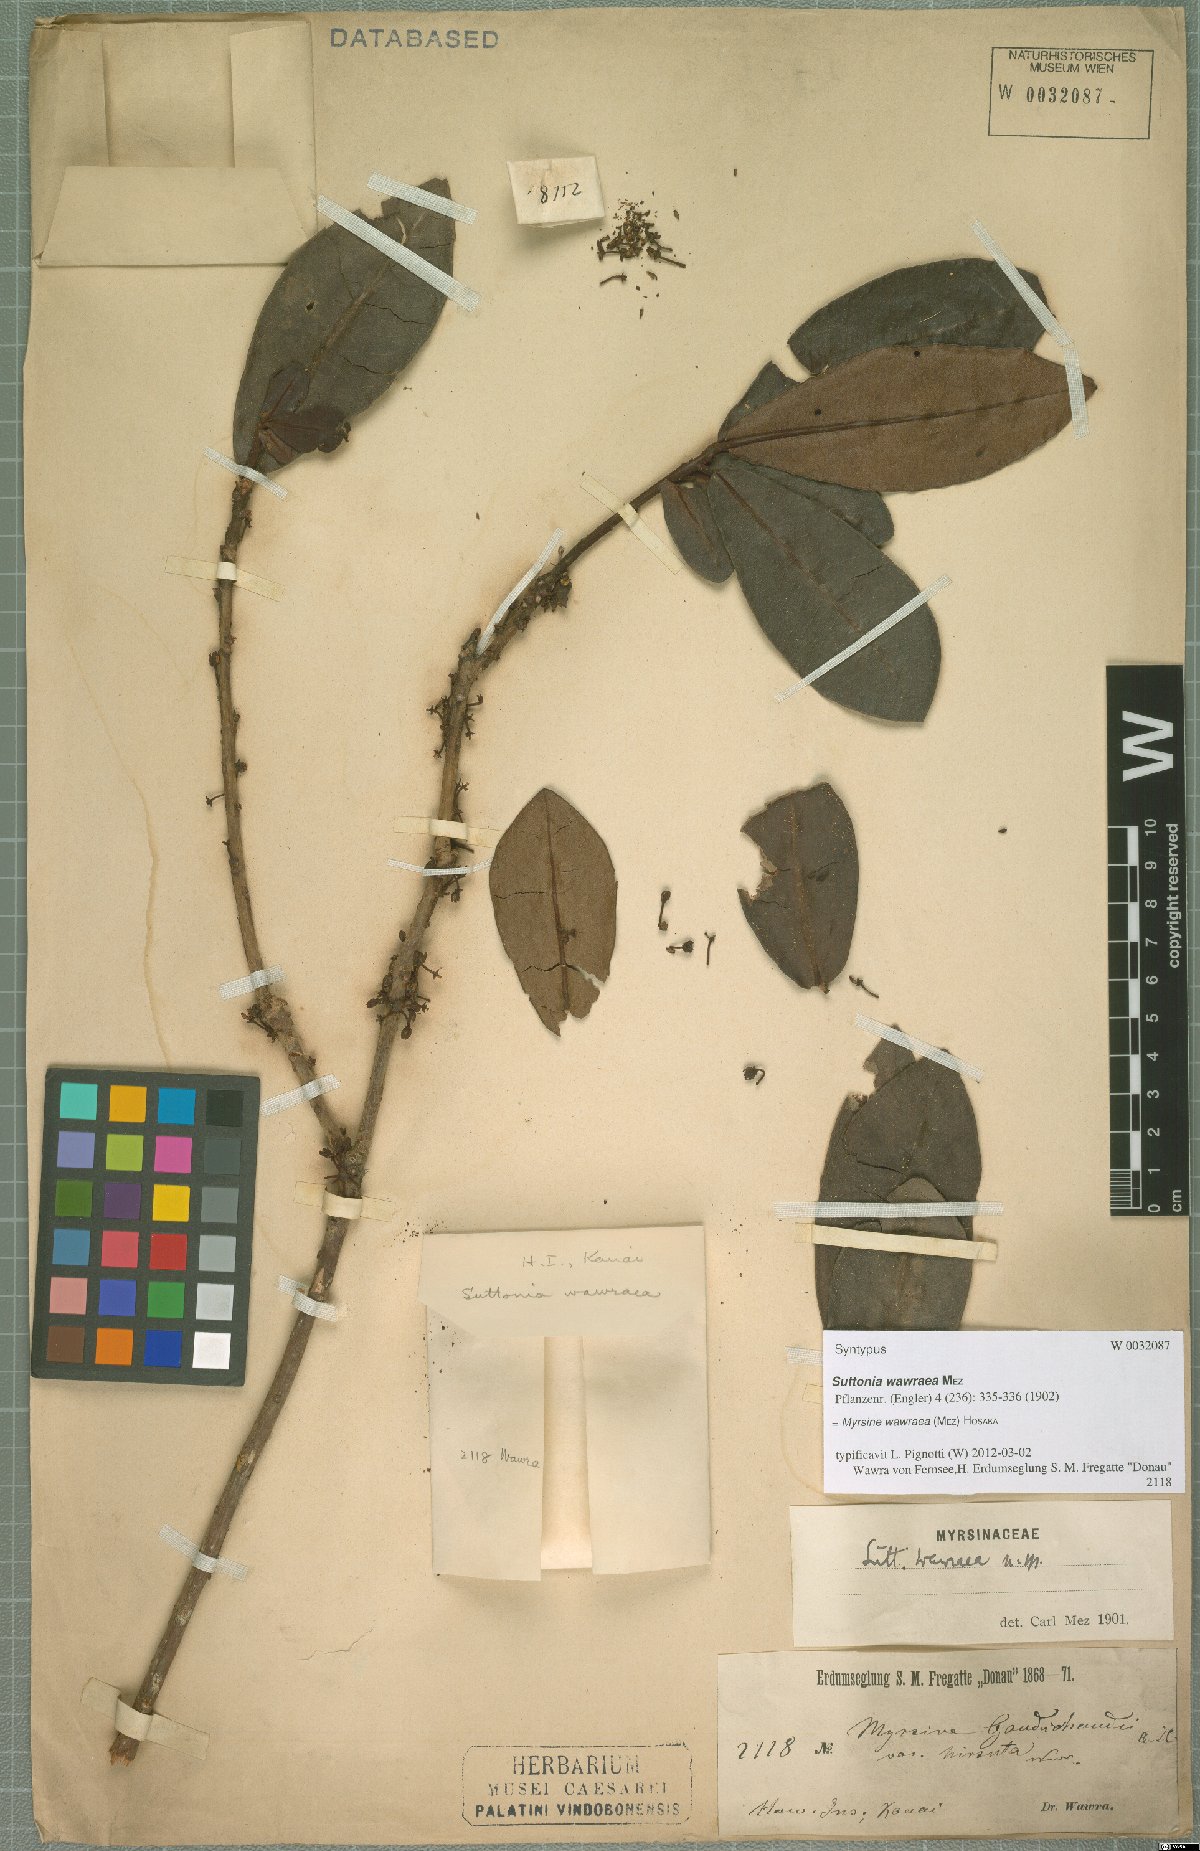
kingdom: Plantae
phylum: Tracheophyta
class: Magnoliopsida
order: Ericales
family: Primulaceae
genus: Myrsine
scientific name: Myrsine wawraea
